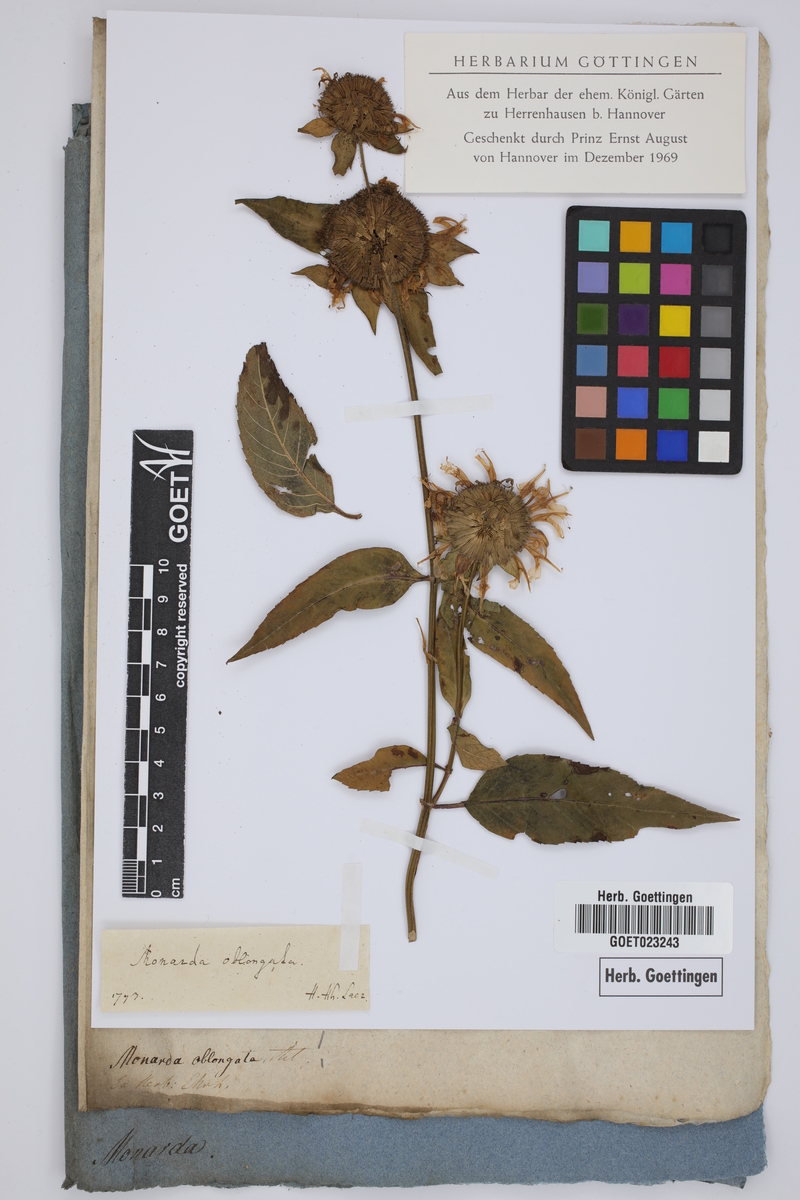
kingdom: Plantae
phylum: Tracheophyta
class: Magnoliopsida
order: Lamiales
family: Lamiaceae
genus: Monarda
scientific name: Monarda fistulosa
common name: Purple beebalm
